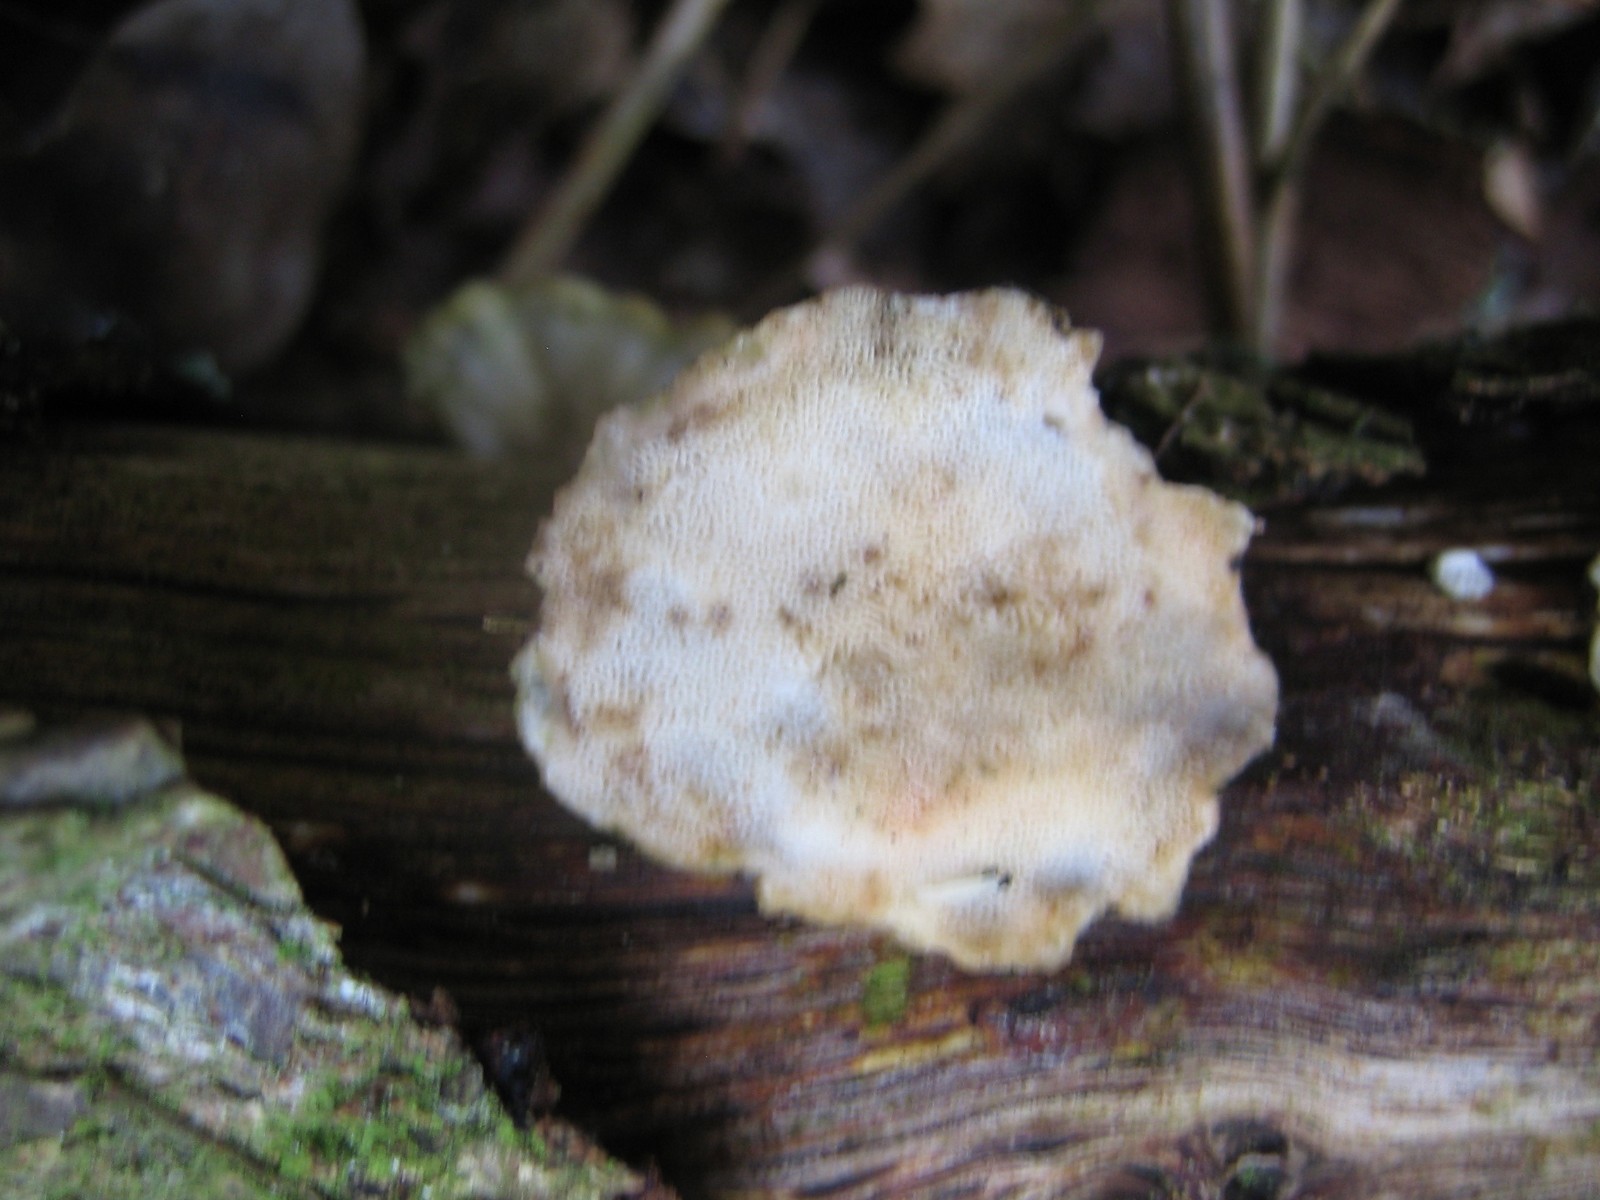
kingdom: Fungi
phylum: Basidiomycota
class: Agaricomycetes
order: Polyporales
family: Polyporaceae
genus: Trametes
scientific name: Trametes hirsuta
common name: håret læderporesvamp
